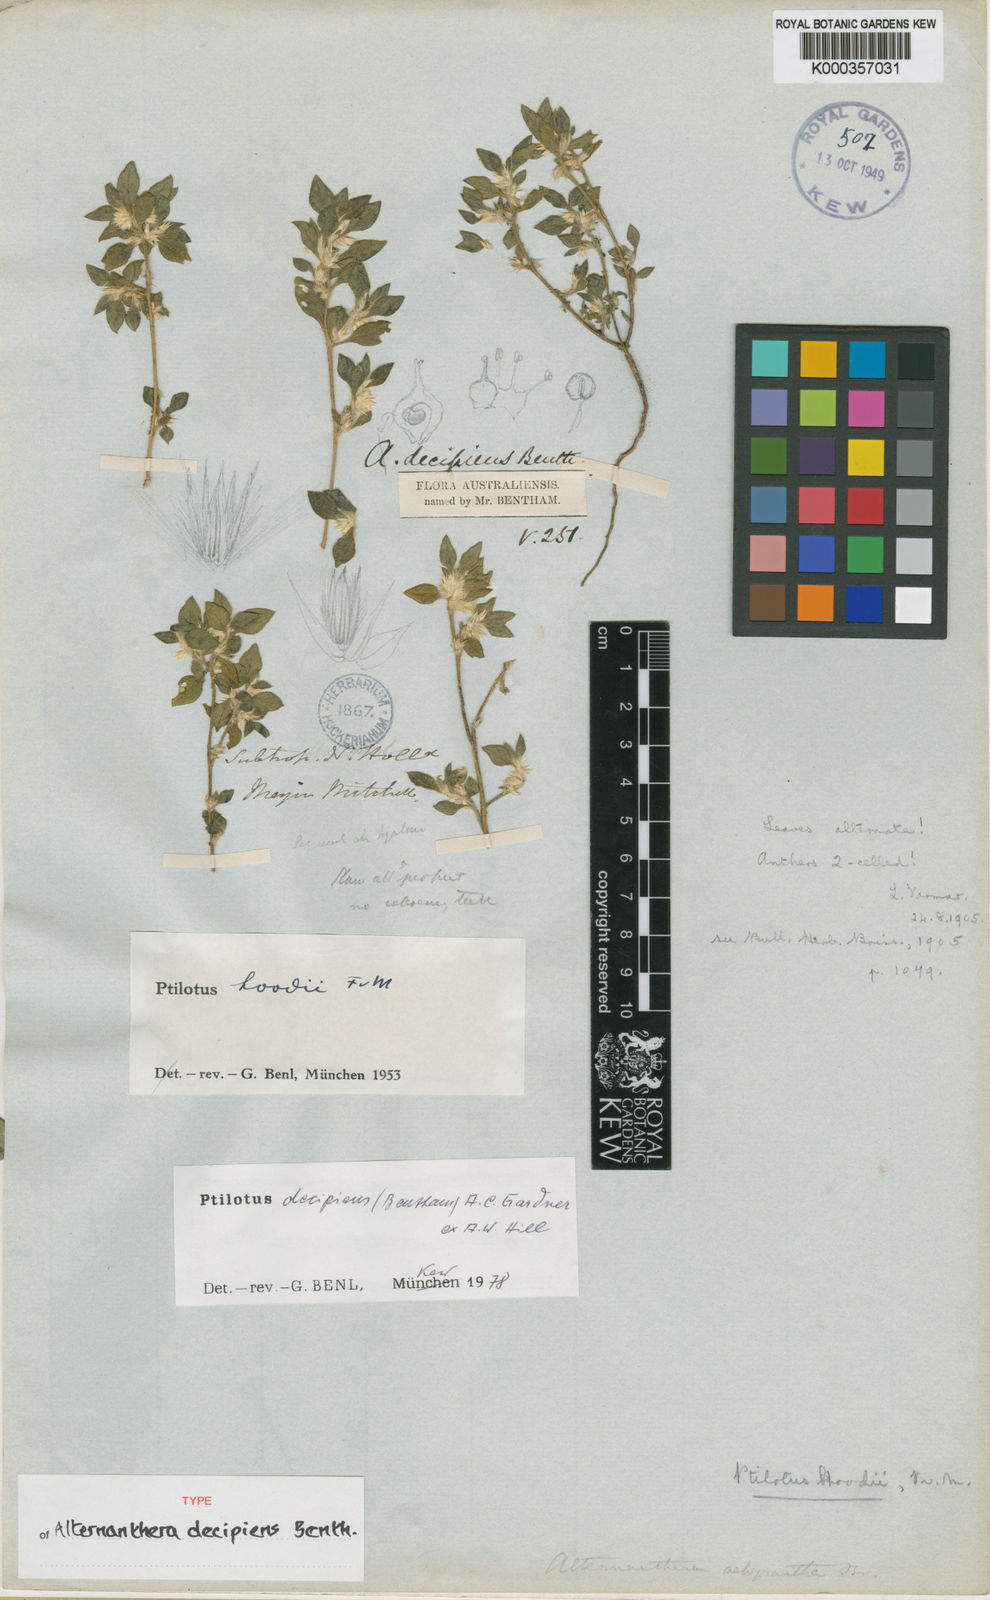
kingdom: Plantae
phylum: Tracheophyta
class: Magnoliopsida
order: Caryophyllales
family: Amaranthaceae
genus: Ptilotus
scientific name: Ptilotus
